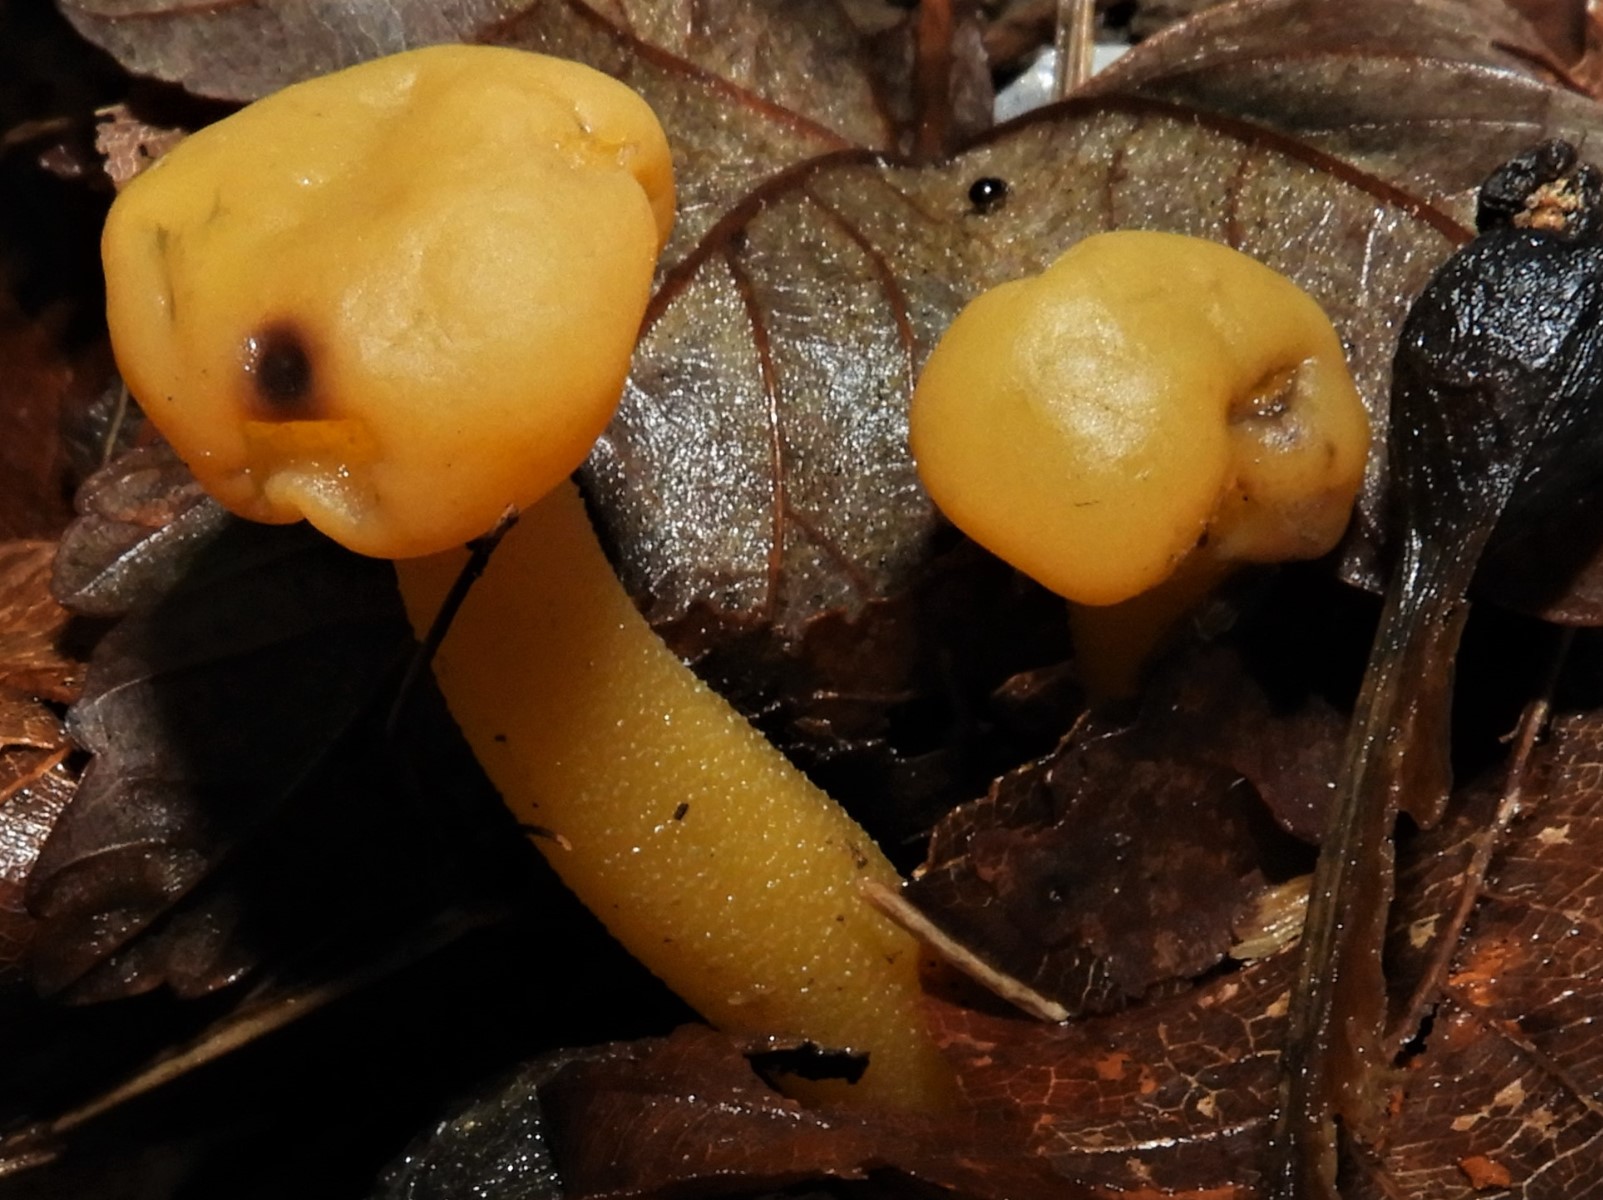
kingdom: Fungi
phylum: Ascomycota
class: Leotiomycetes
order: Leotiales
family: Leotiaceae
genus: Leotia
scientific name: Leotia lubrica
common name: ravsvamp
